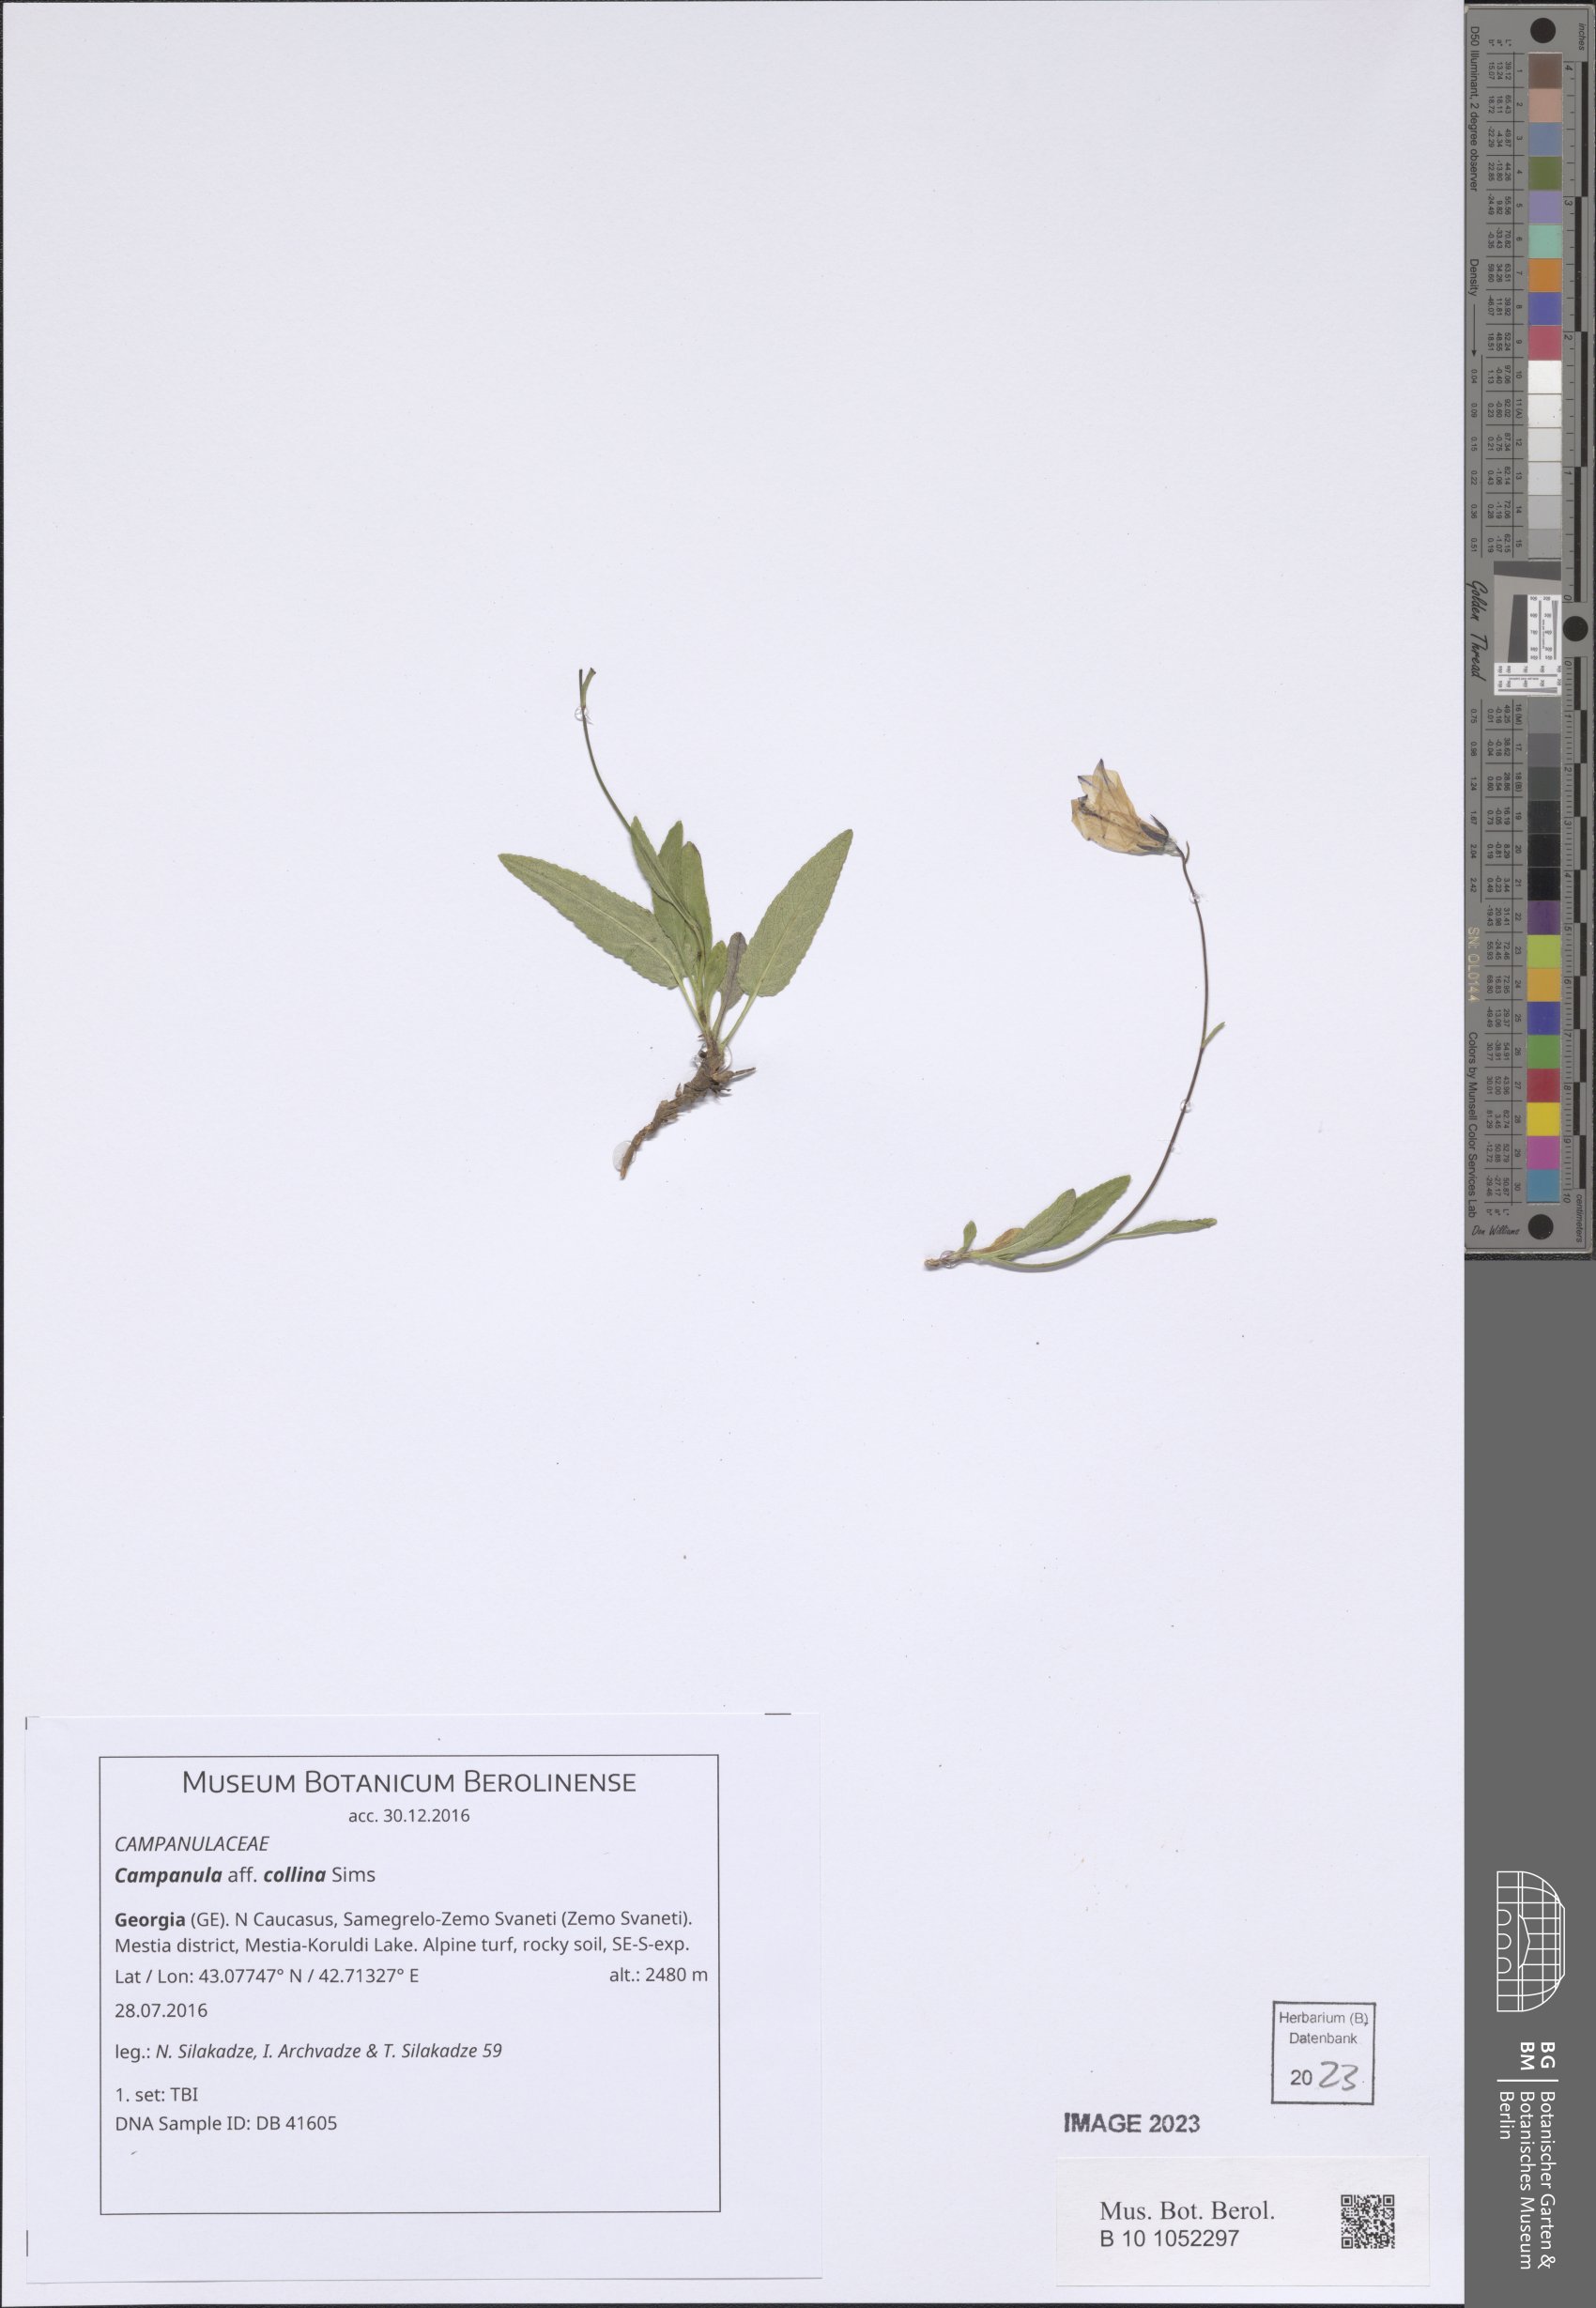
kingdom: Plantae
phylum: Tracheophyta
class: Magnoliopsida
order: Asterales
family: Campanulaceae
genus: Campanula
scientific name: Campanula collina
